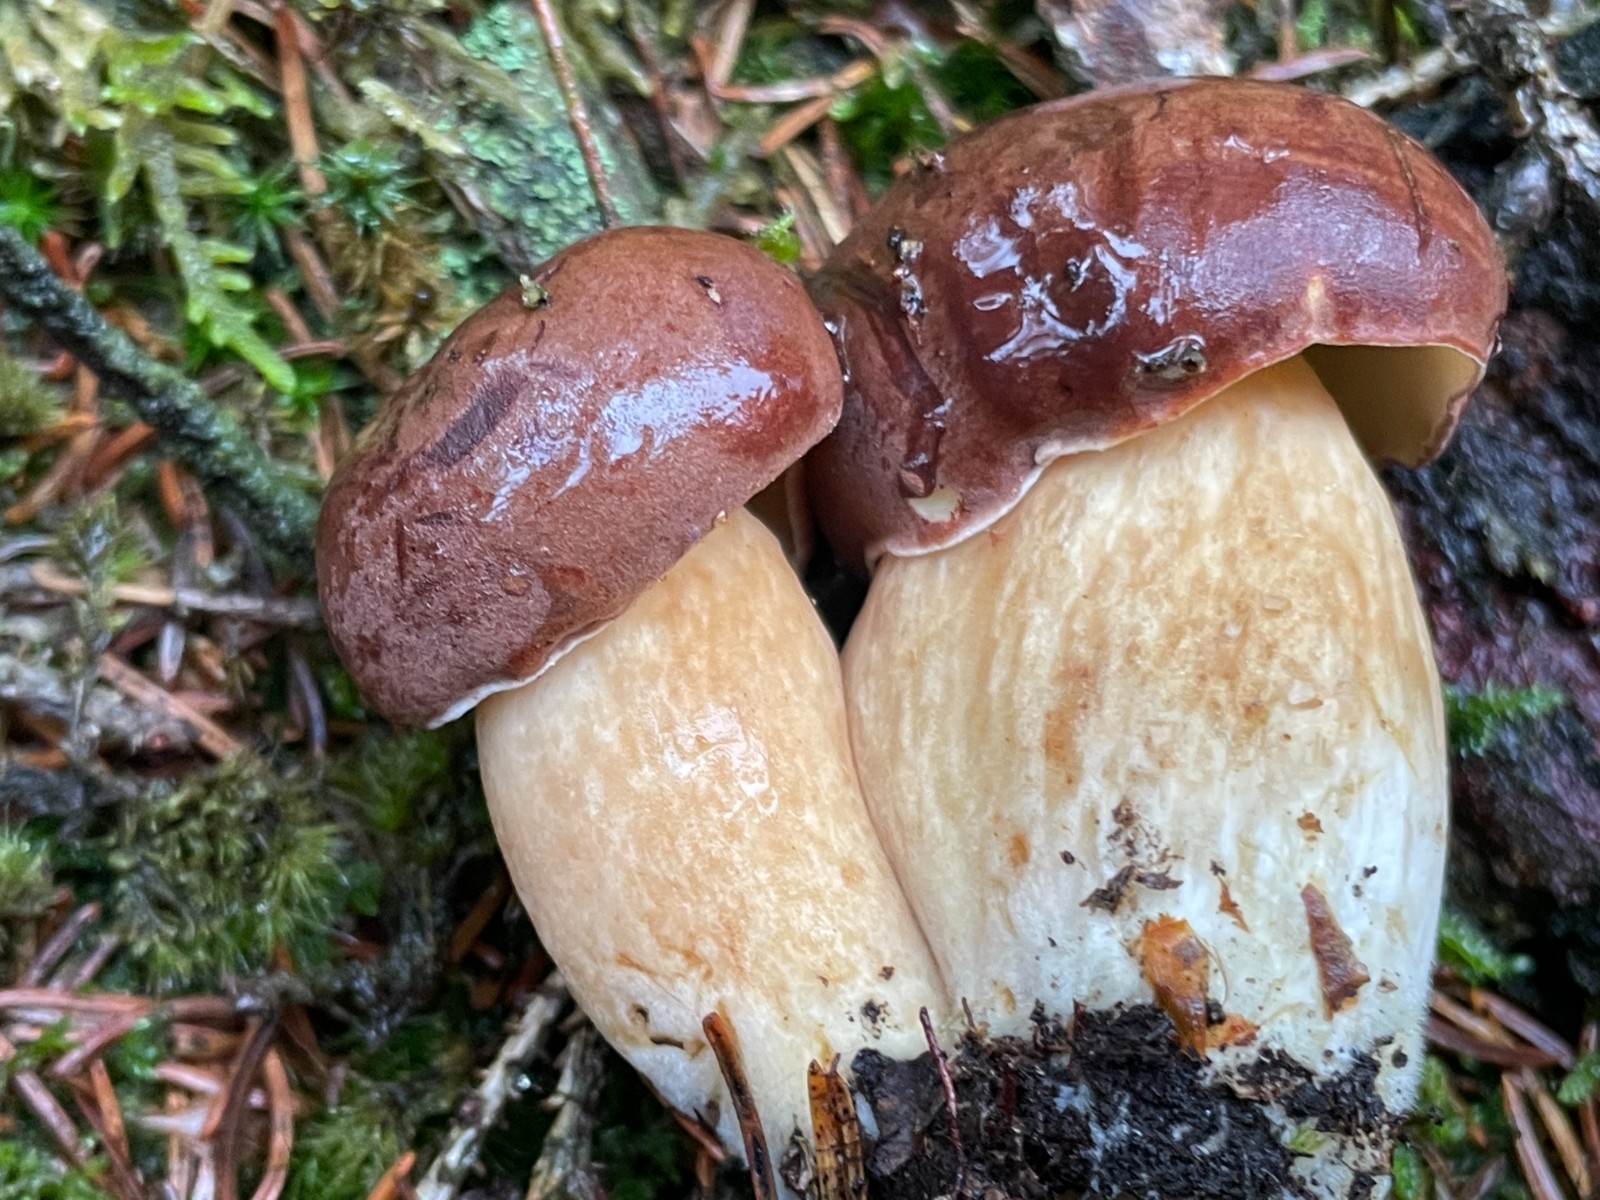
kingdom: Fungi
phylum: Basidiomycota
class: Agaricomycetes
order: Boletales
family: Boletaceae
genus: Imleria
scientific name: Imleria badia
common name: brunstokket rørhat
